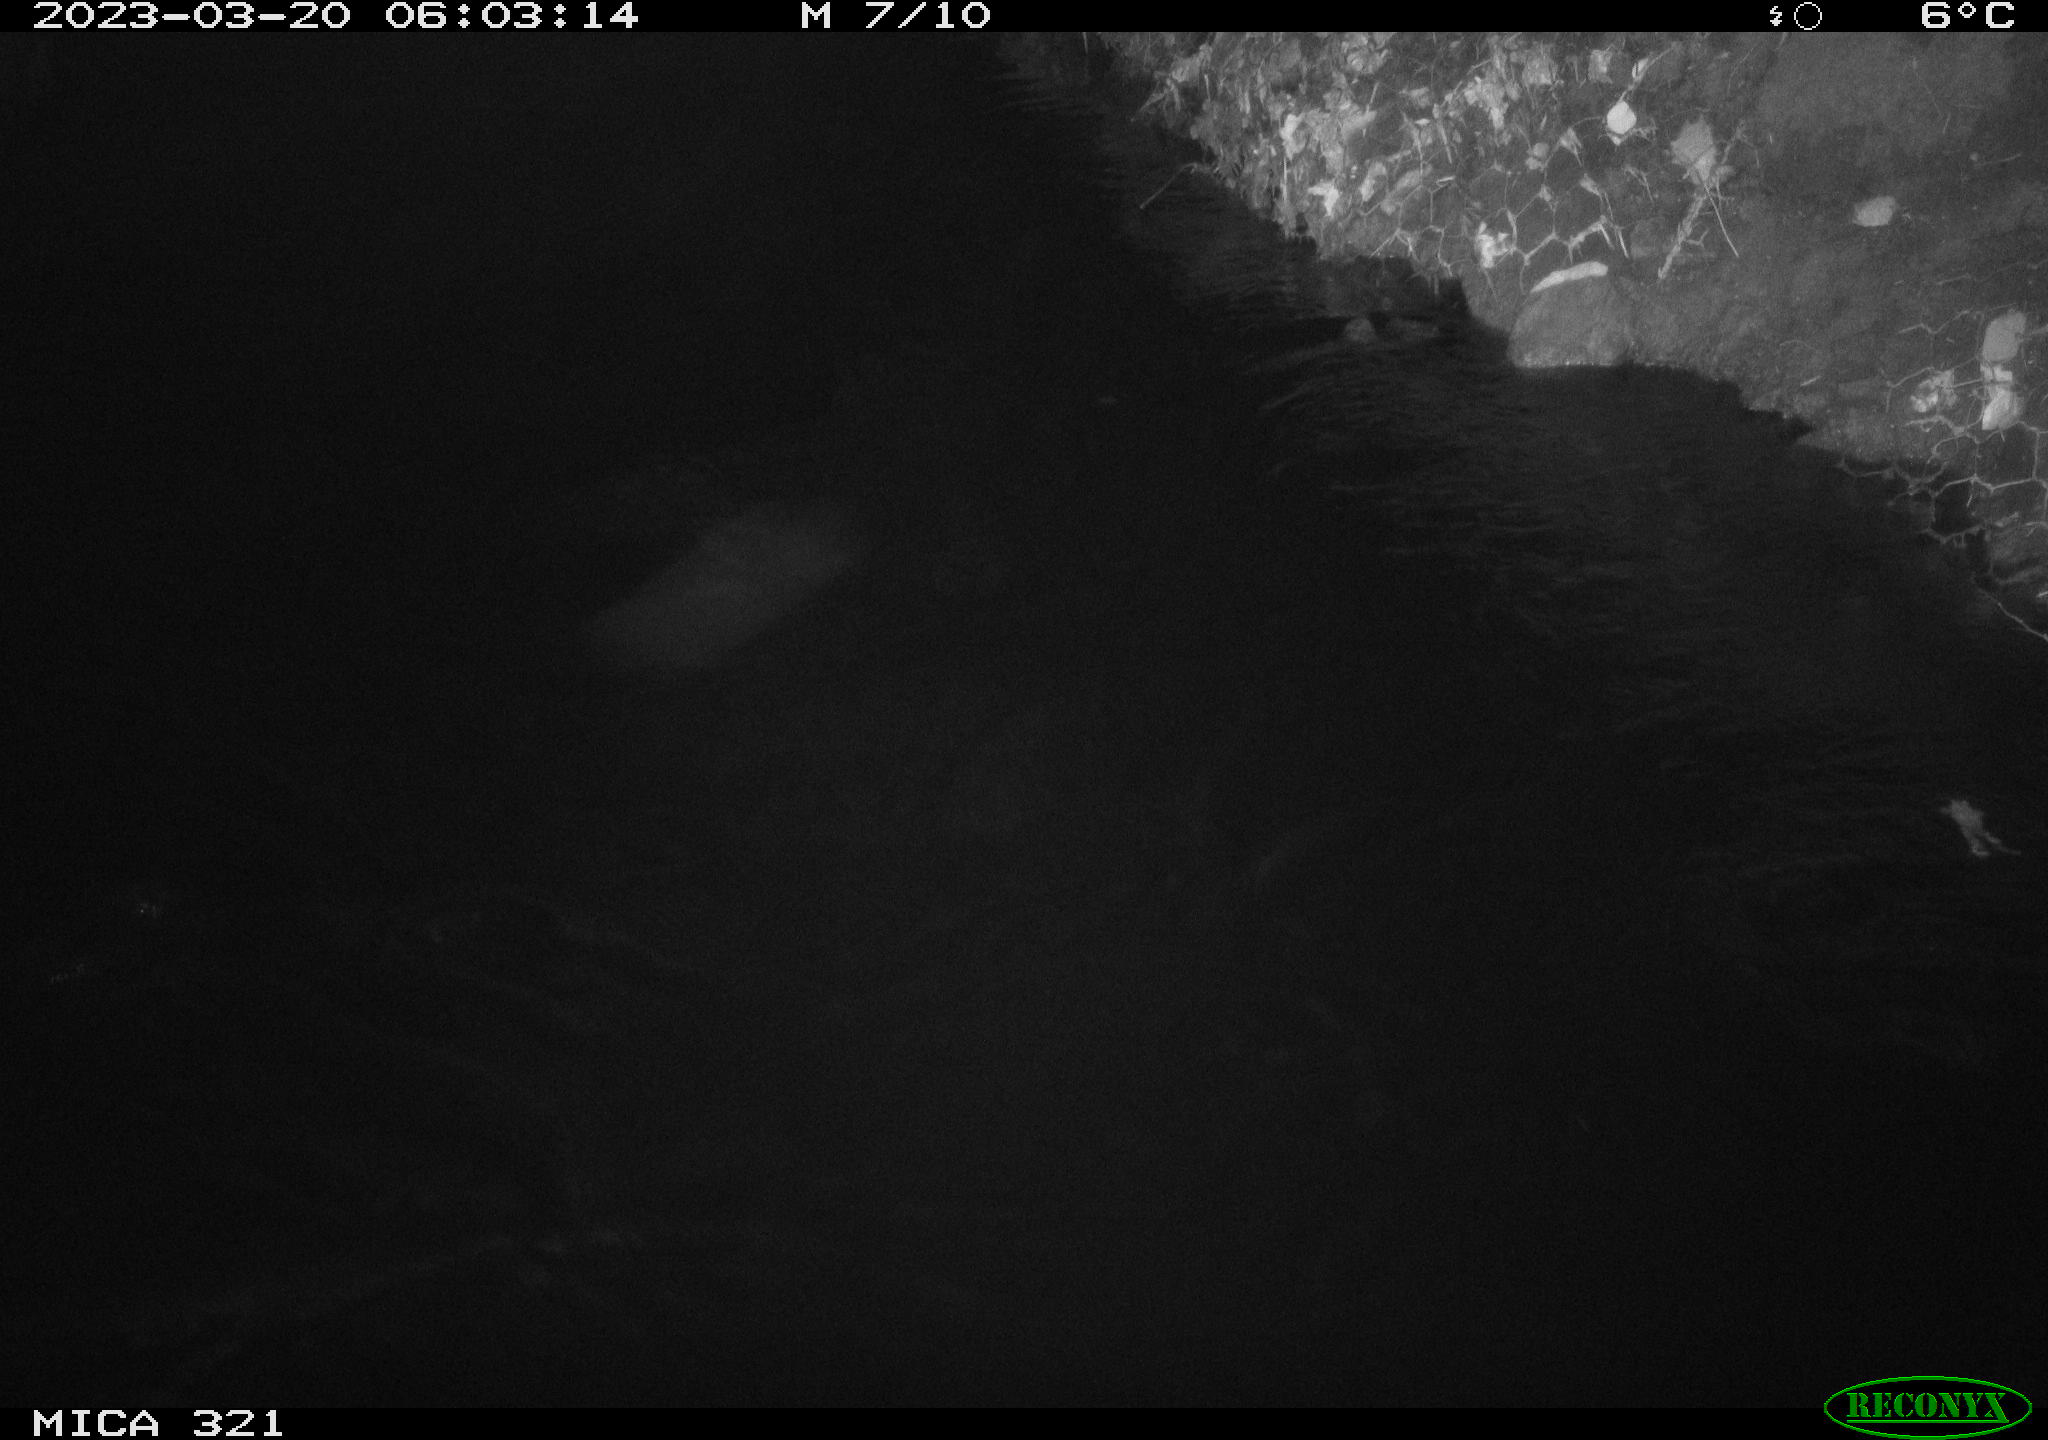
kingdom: Animalia
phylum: Chordata
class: Aves
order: Gruiformes
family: Rallidae
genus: Fulica
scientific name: Fulica atra
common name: Eurasian coot
